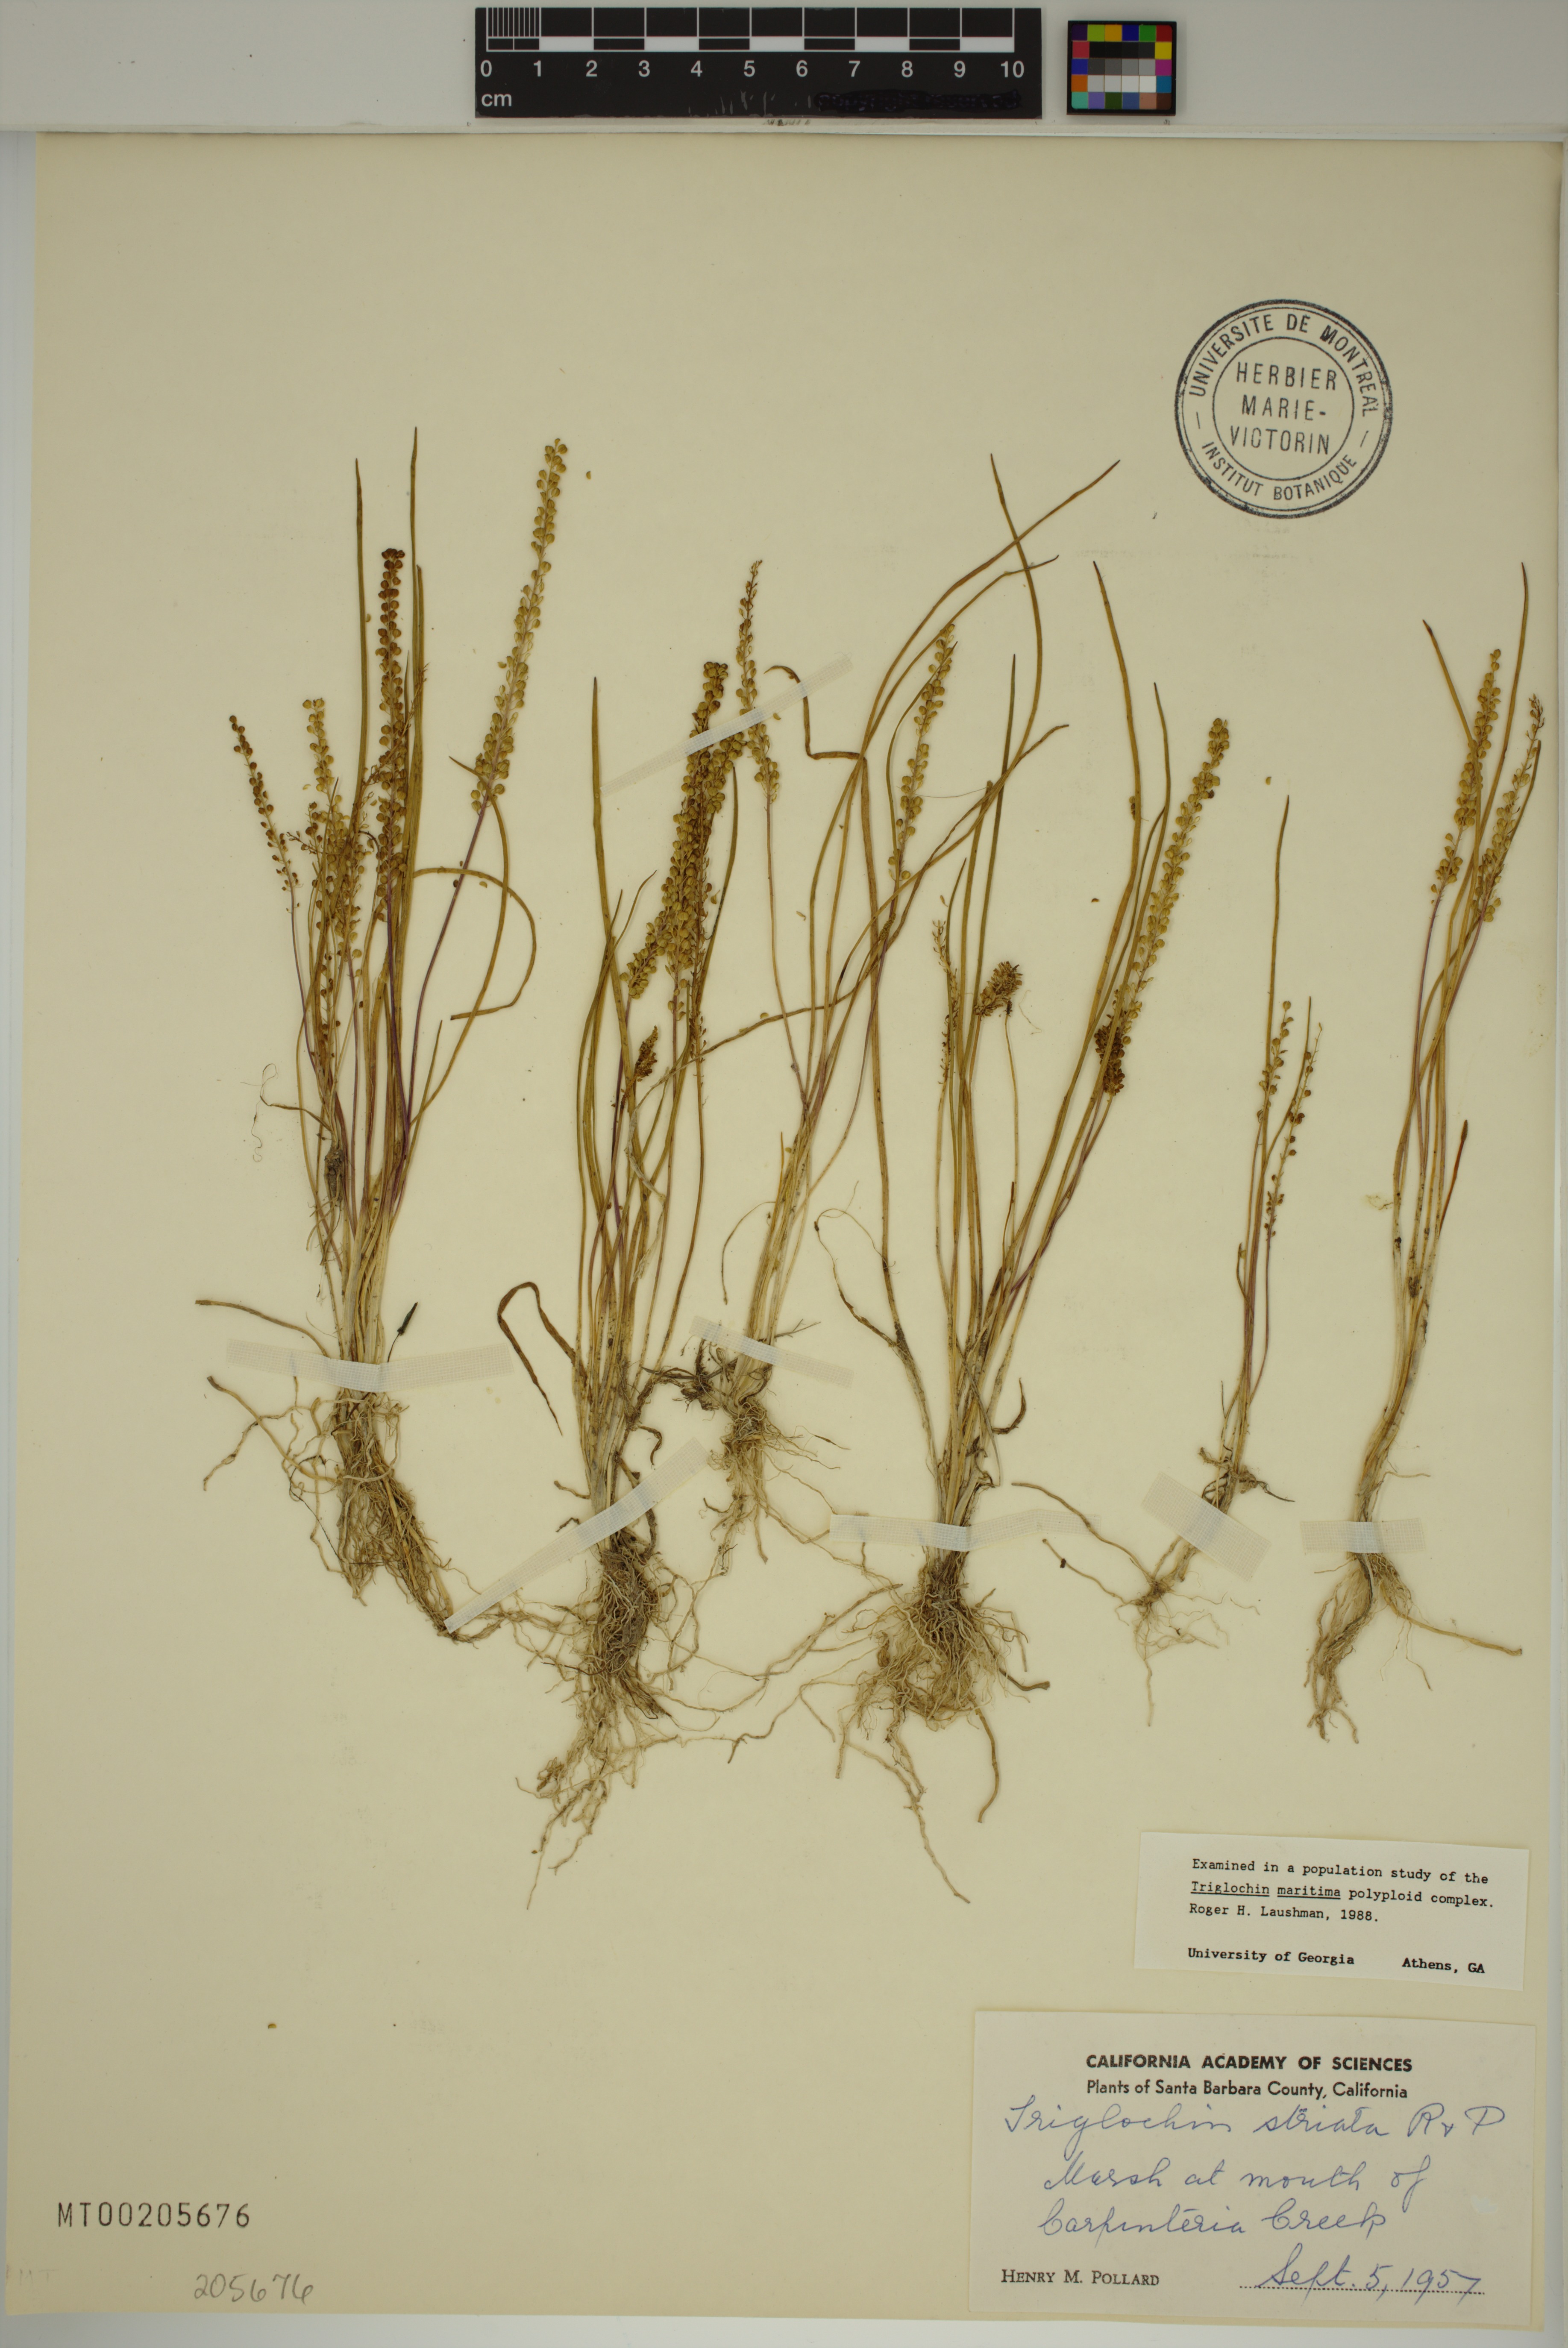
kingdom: Plantae
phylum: Tracheophyta
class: Liliopsida
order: Alismatales
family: Juncaginaceae
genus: Triglochin
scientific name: Triglochin striata
